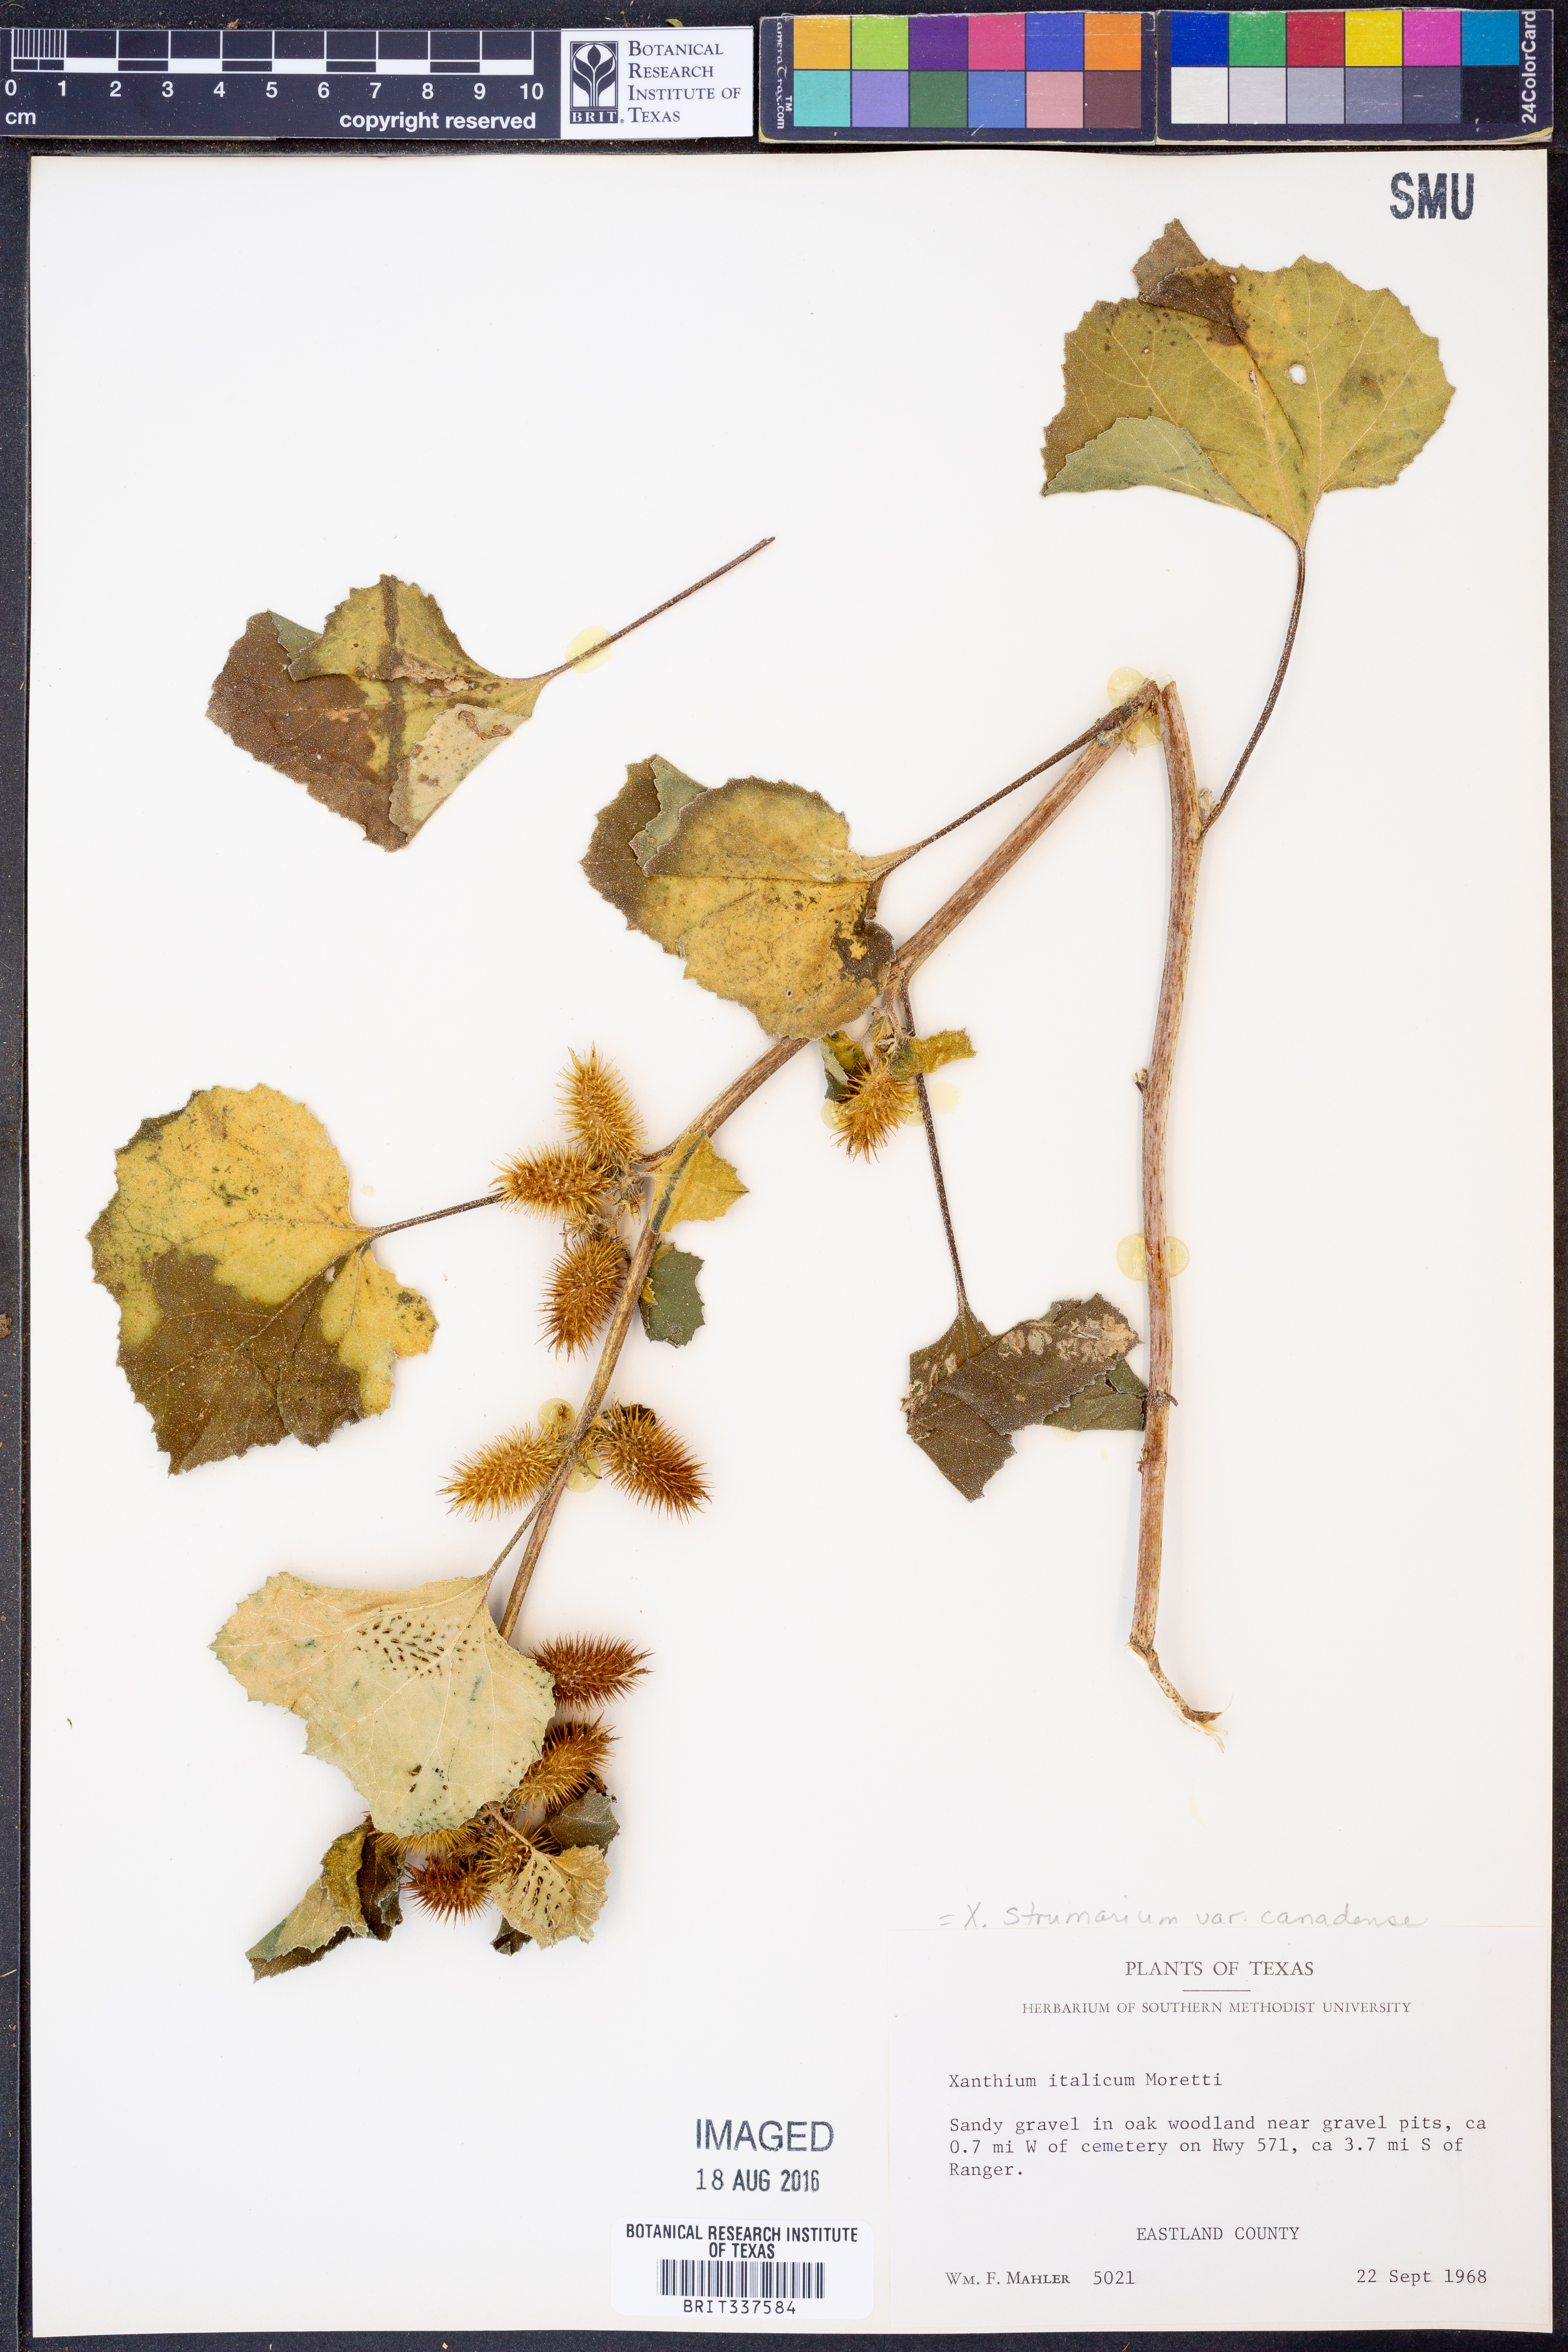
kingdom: Plantae
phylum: Tracheophyta
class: Magnoliopsida
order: Asterales
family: Asteraceae
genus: Xanthium
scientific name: Xanthium orientale
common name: Californian burr
